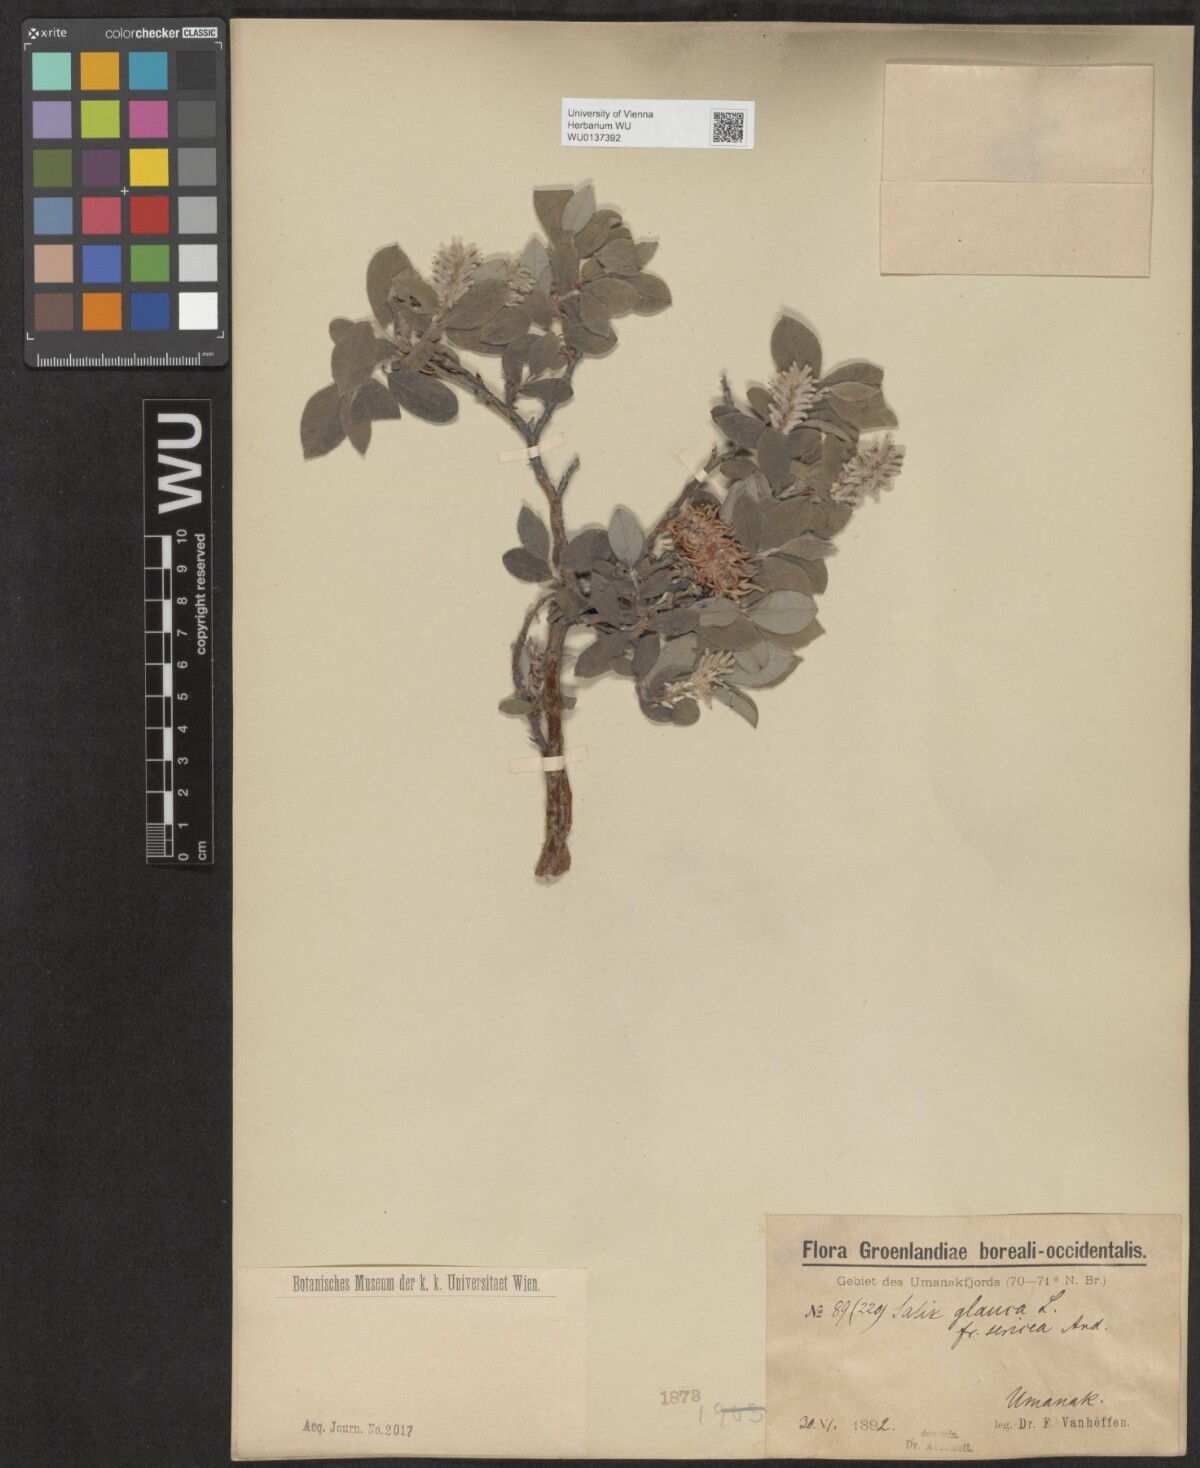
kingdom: Plantae
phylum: Tracheophyta
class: Magnoliopsida
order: Malpighiales
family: Salicaceae
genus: Salix
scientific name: Salix glauca
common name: Glaucous willow
